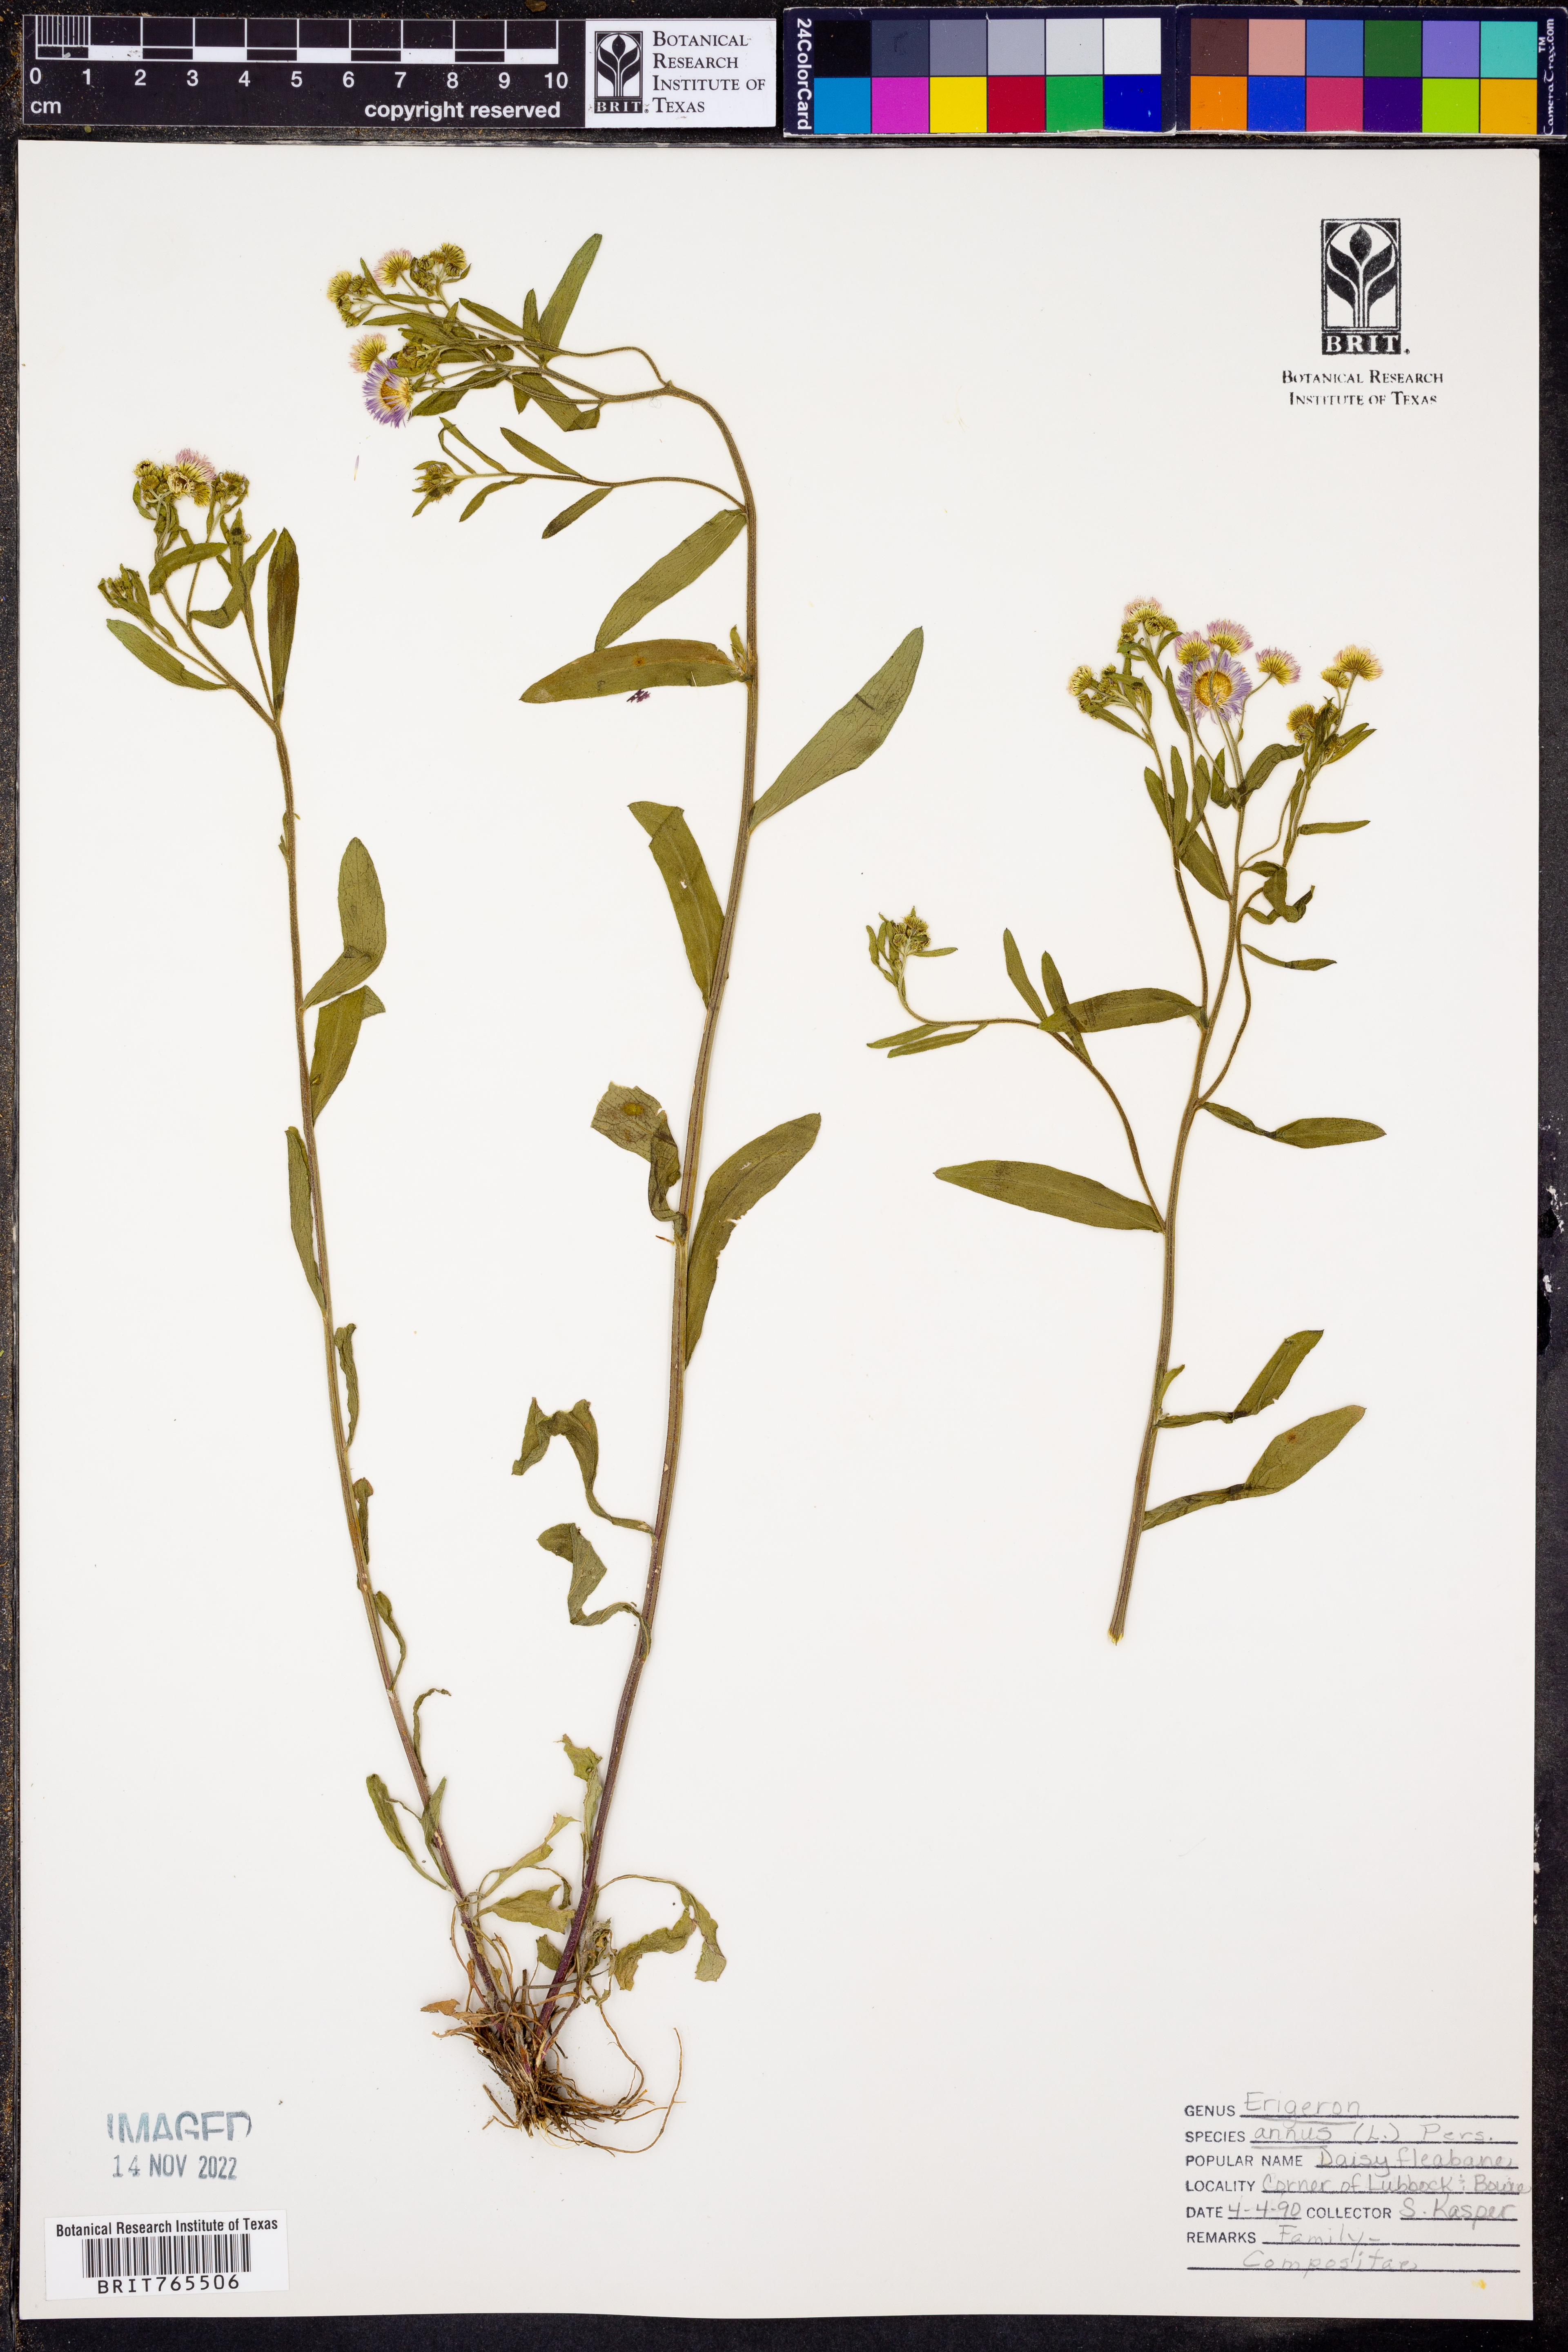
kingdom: Plantae
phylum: Tracheophyta
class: Magnoliopsida
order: Asterales
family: Asteraceae
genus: Erigeron
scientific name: Erigeron annuus
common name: Tall fleabane
